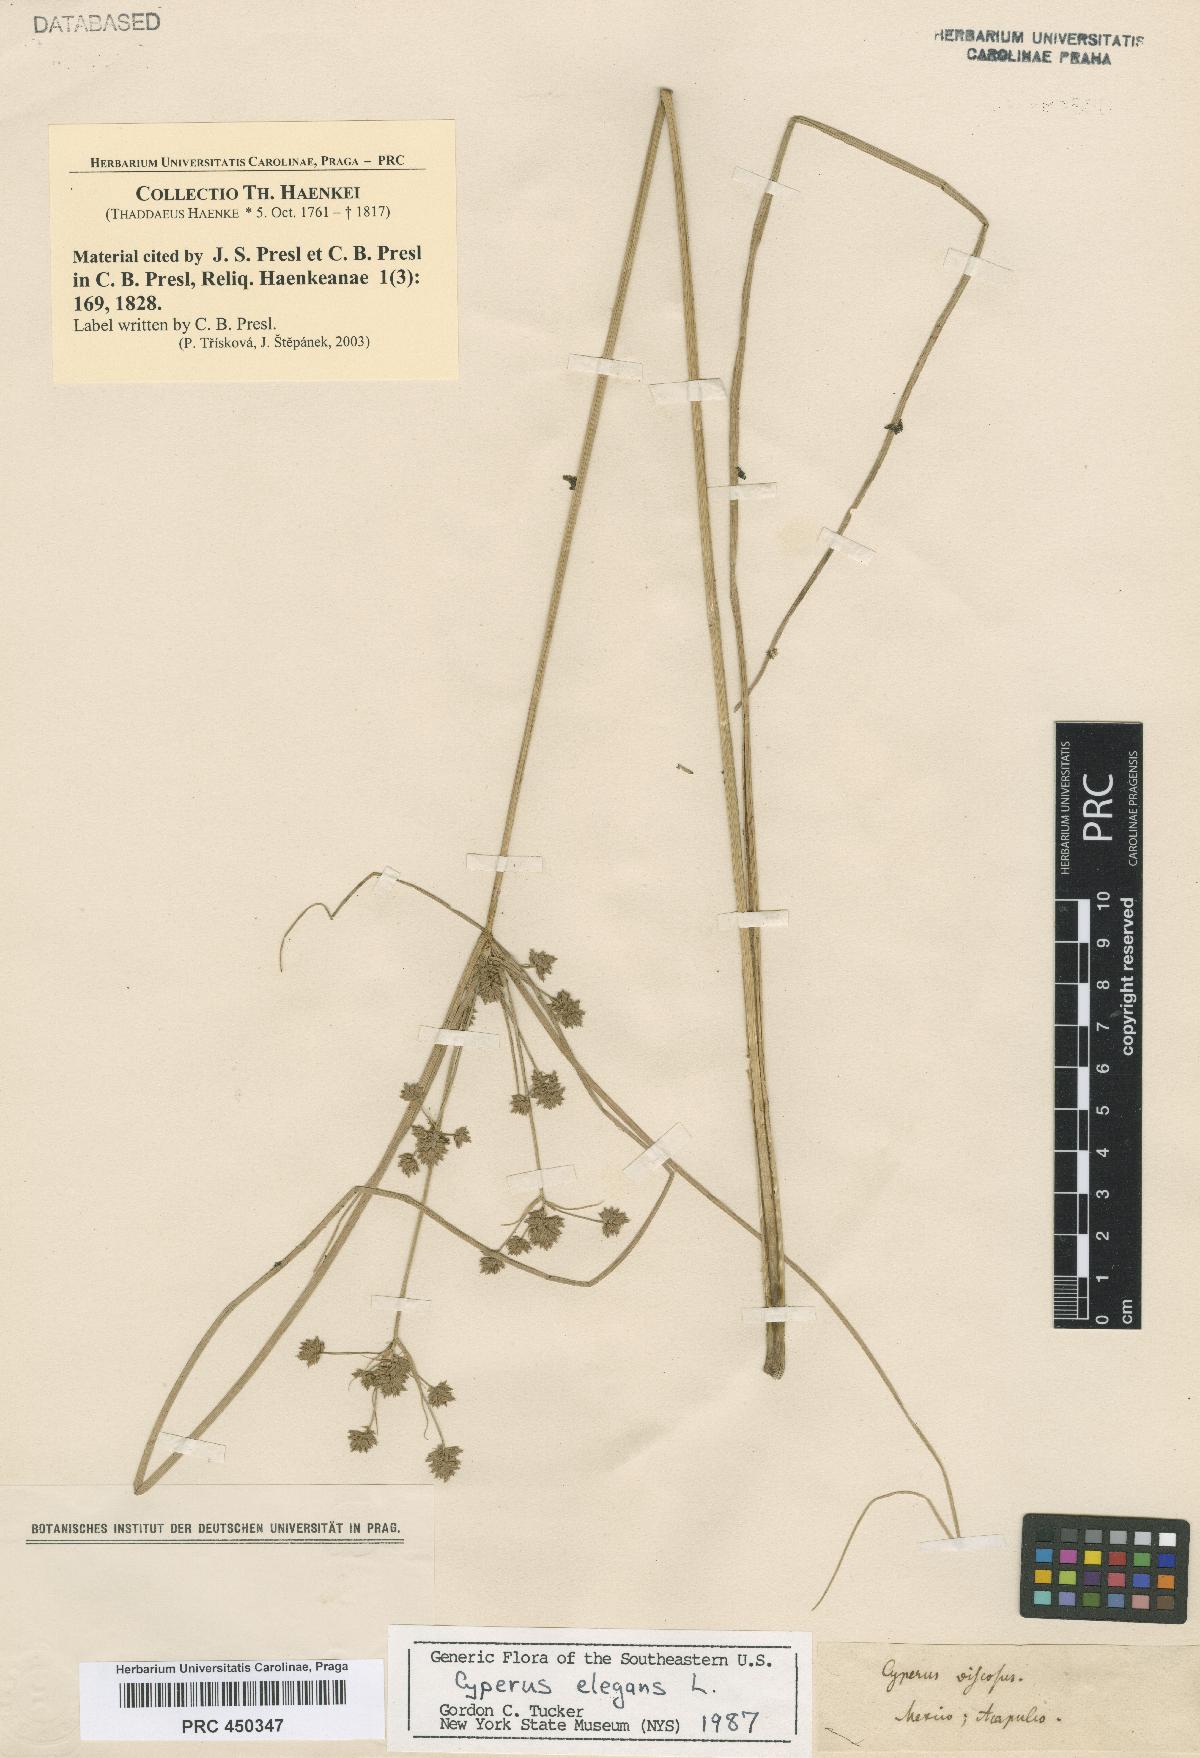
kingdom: Plantae
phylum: Tracheophyta
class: Liliopsida
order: Poales
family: Cyperaceae
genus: Cyperus
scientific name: Cyperus
